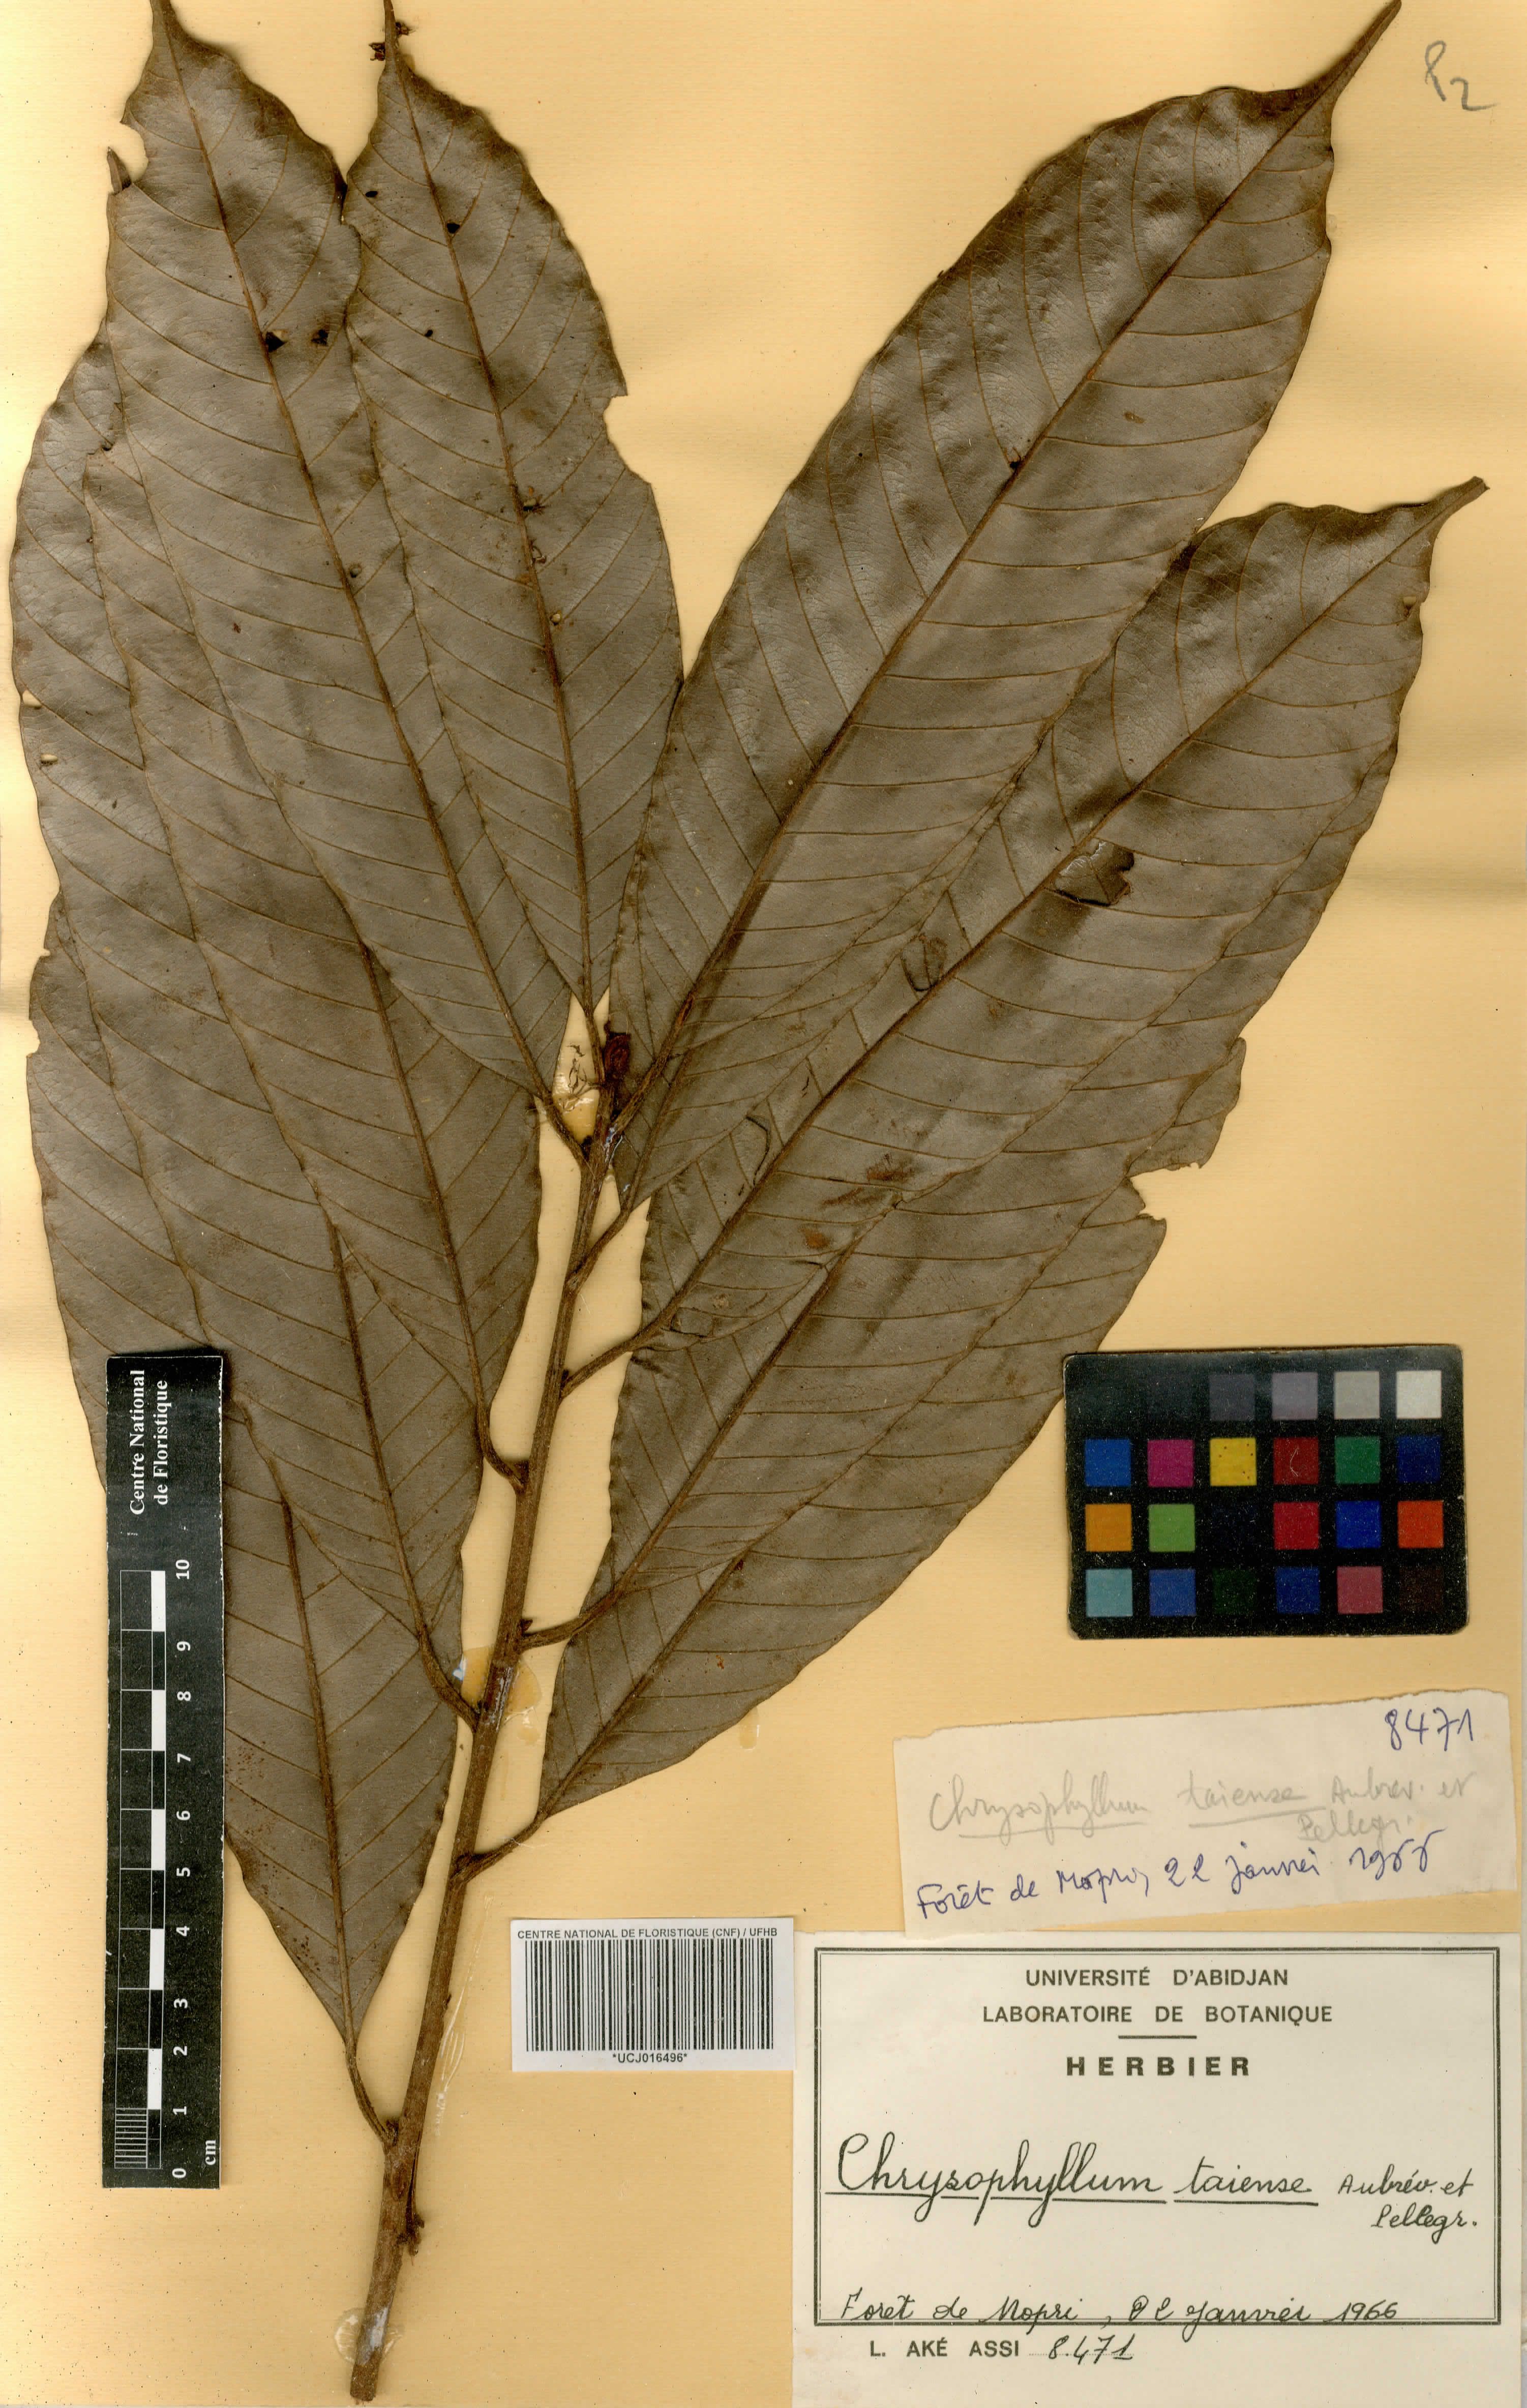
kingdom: Plantae
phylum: Tracheophyta
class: Magnoliopsida
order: Ericales
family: Sapotaceae
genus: Gambeya
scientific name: Gambeya taiensis
